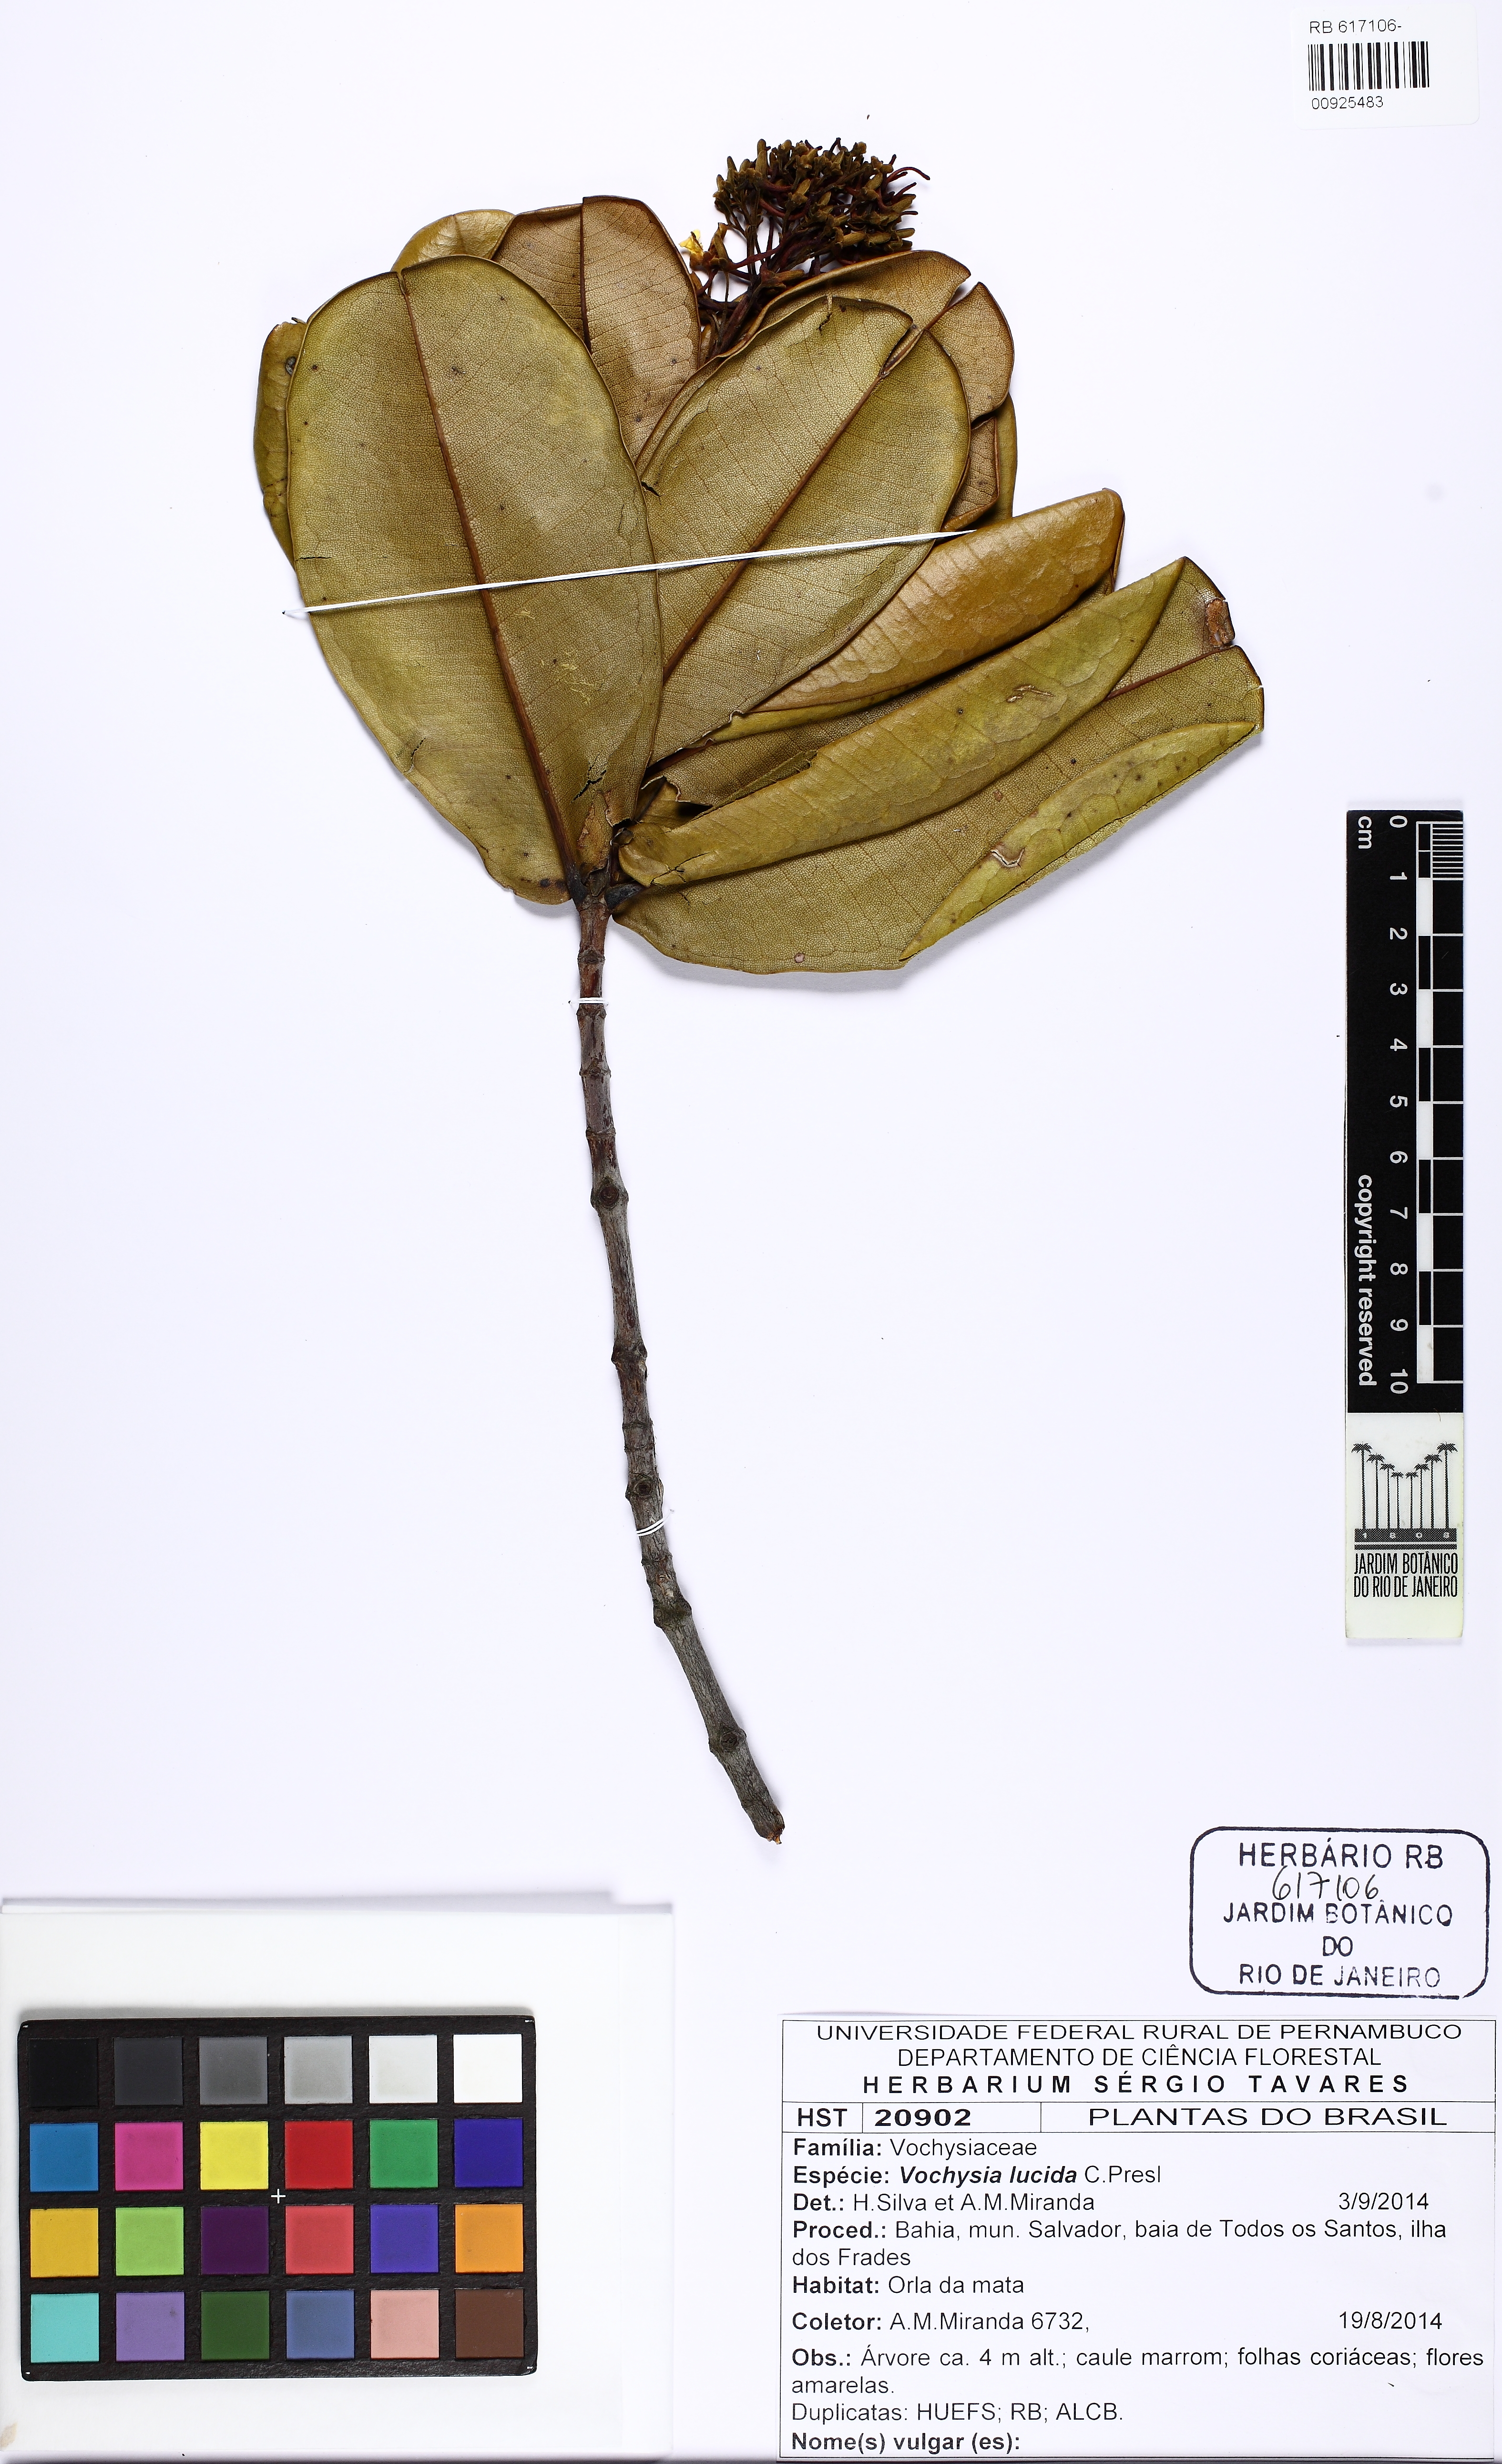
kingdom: Plantae
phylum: Tracheophyta
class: Magnoliopsida
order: Myrtales
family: Vochysiaceae
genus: Vochysia
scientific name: Vochysia lucida
